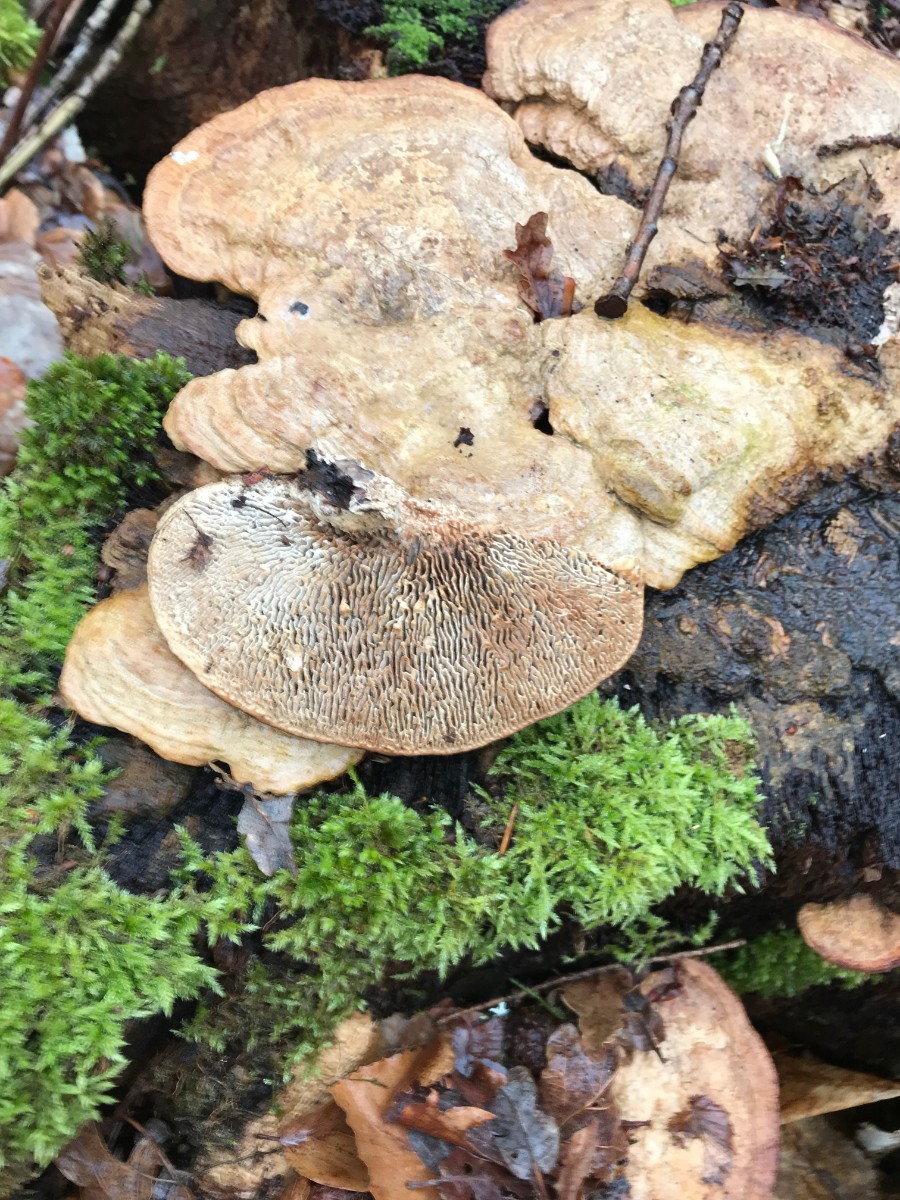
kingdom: Fungi
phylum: Basidiomycota
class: Agaricomycetes
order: Polyporales
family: Fomitopsidaceae
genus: Daedalea
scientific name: Daedalea quercina
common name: ege-labyrintsvamp
